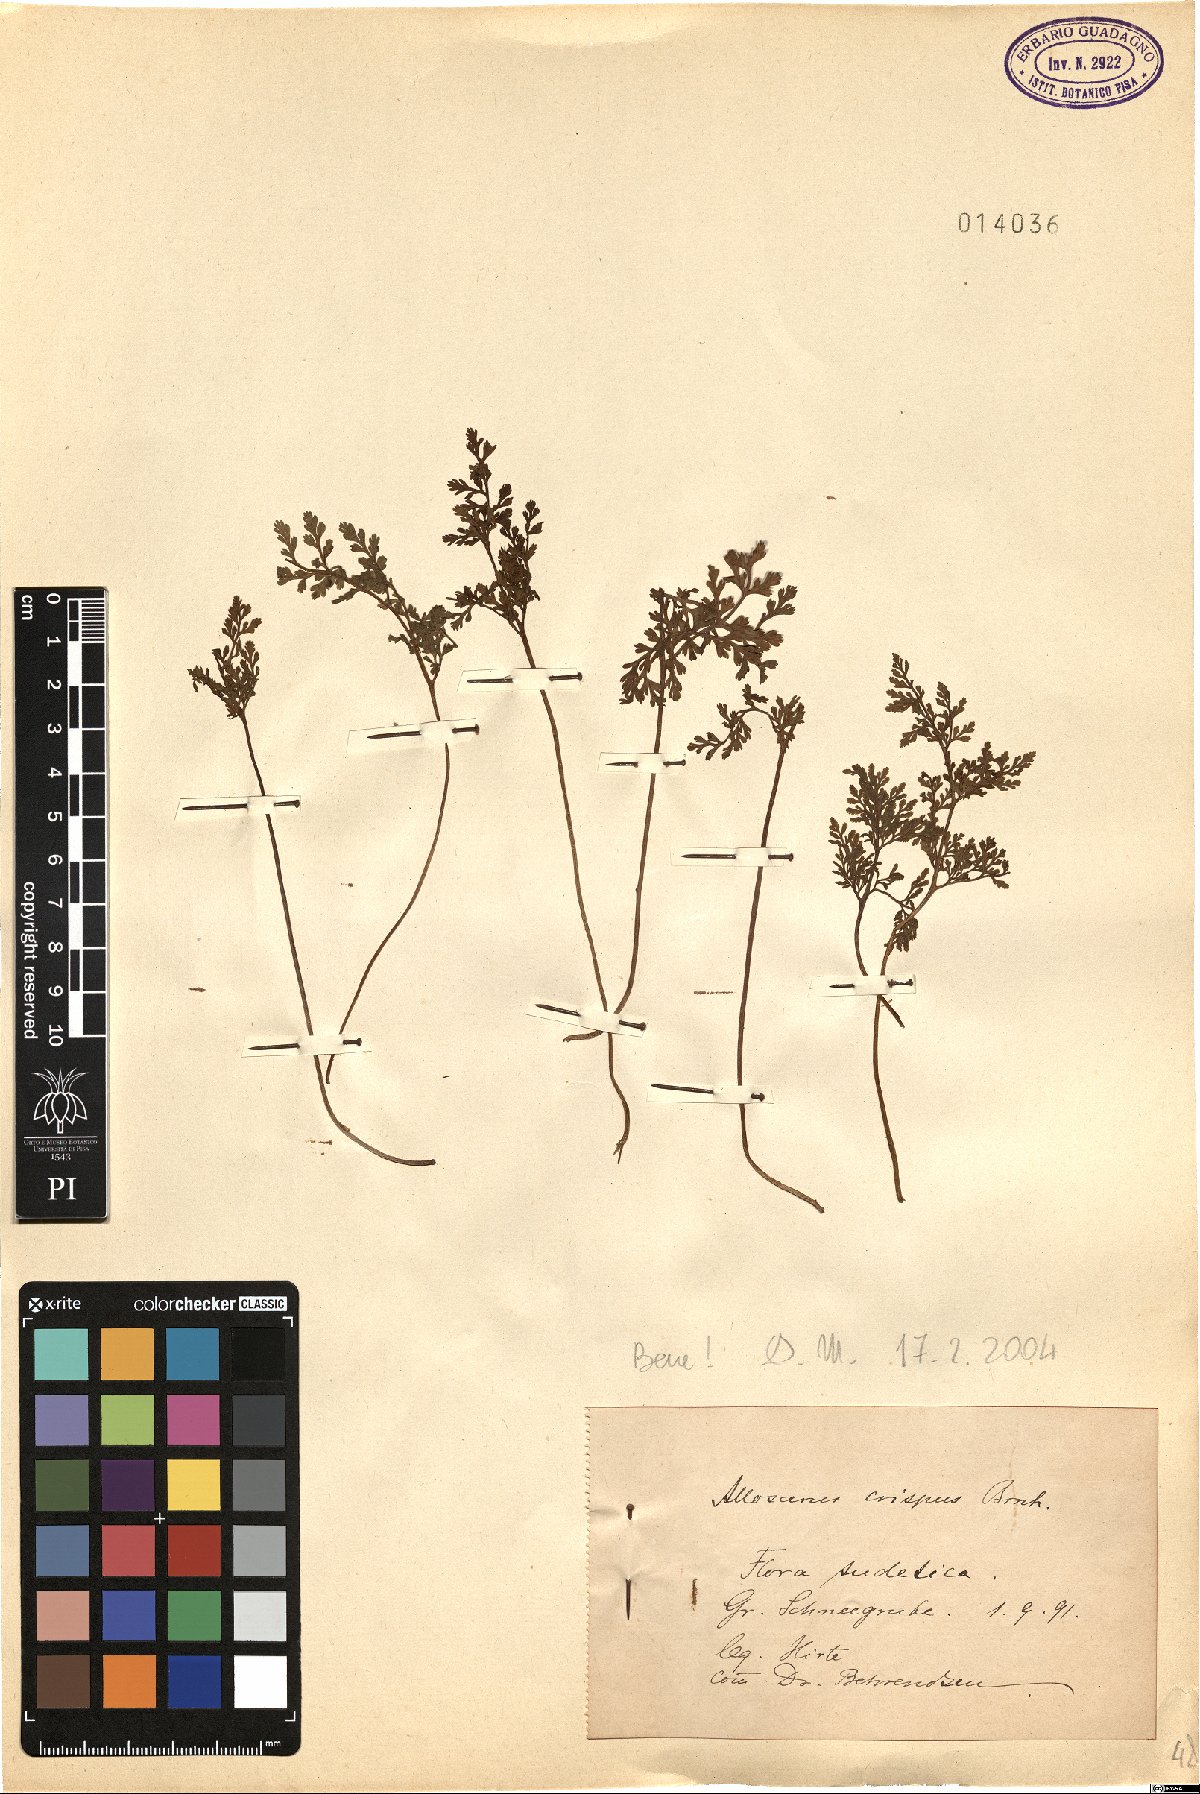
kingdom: Plantae
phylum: Tracheophyta
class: Polypodiopsida
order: Polypodiales
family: Pteridaceae
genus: Cryptogramma
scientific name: Cryptogramma crispa
